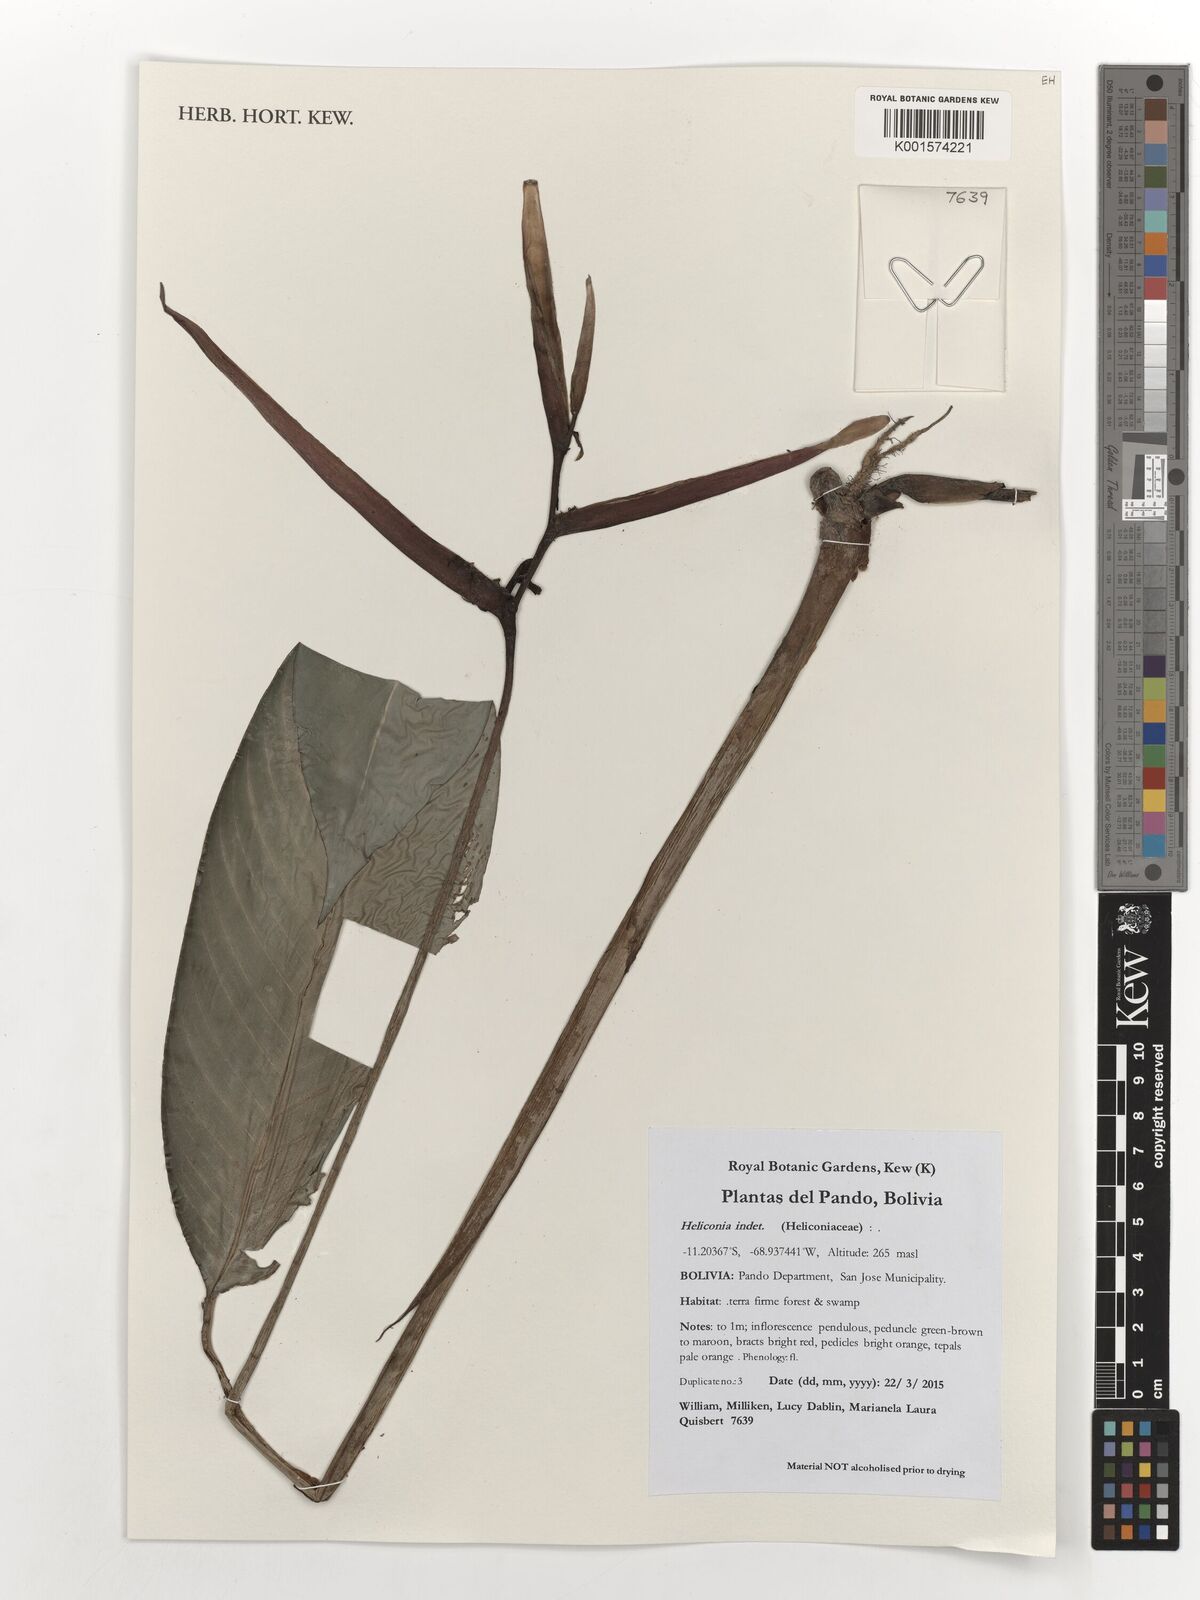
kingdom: Plantae
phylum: Tracheophyta
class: Liliopsida
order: Zingiberales
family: Heliconiaceae
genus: Heliconia
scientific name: Heliconia
